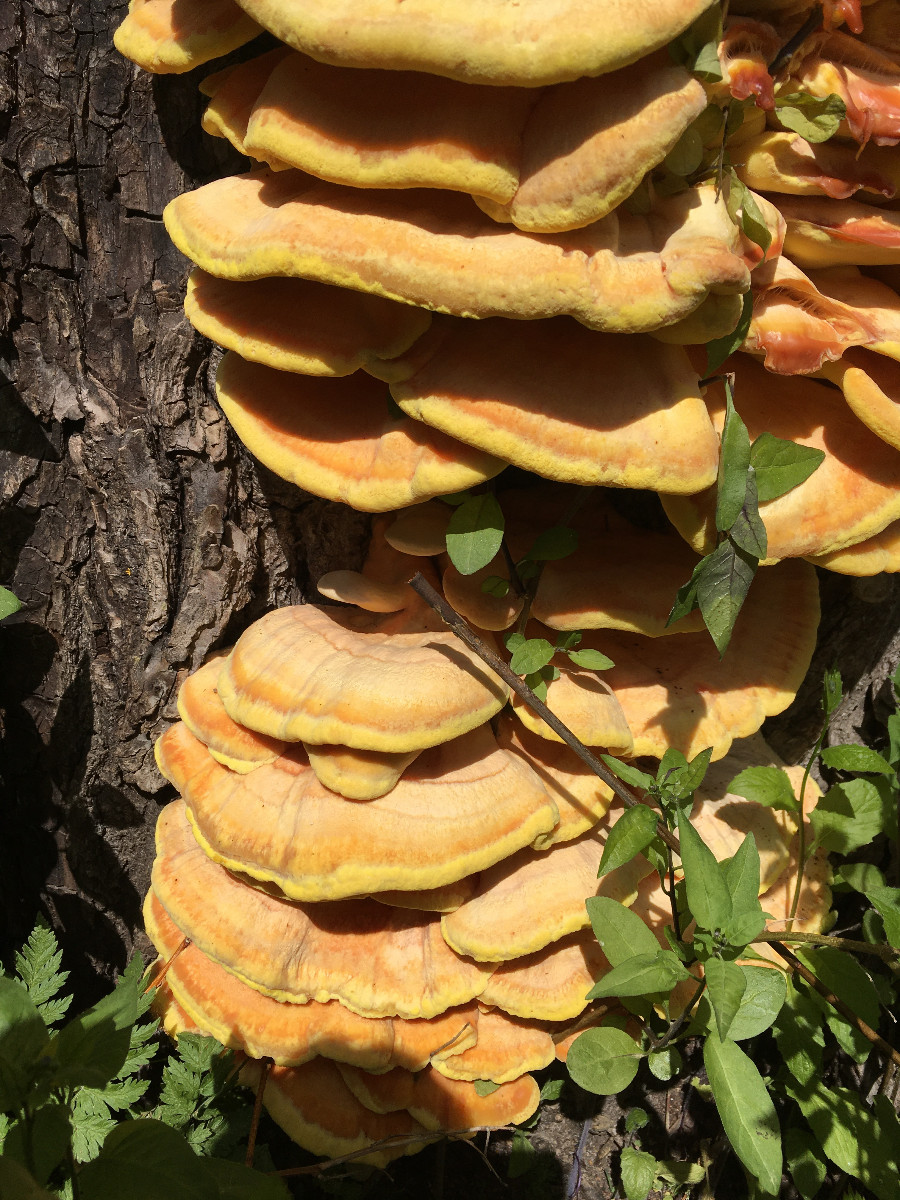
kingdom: Fungi
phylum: Basidiomycota
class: Agaricomycetes
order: Polyporales
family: Laetiporaceae
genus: Laetiporus
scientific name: Laetiporus sulphureus
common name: svovlporesvamp
